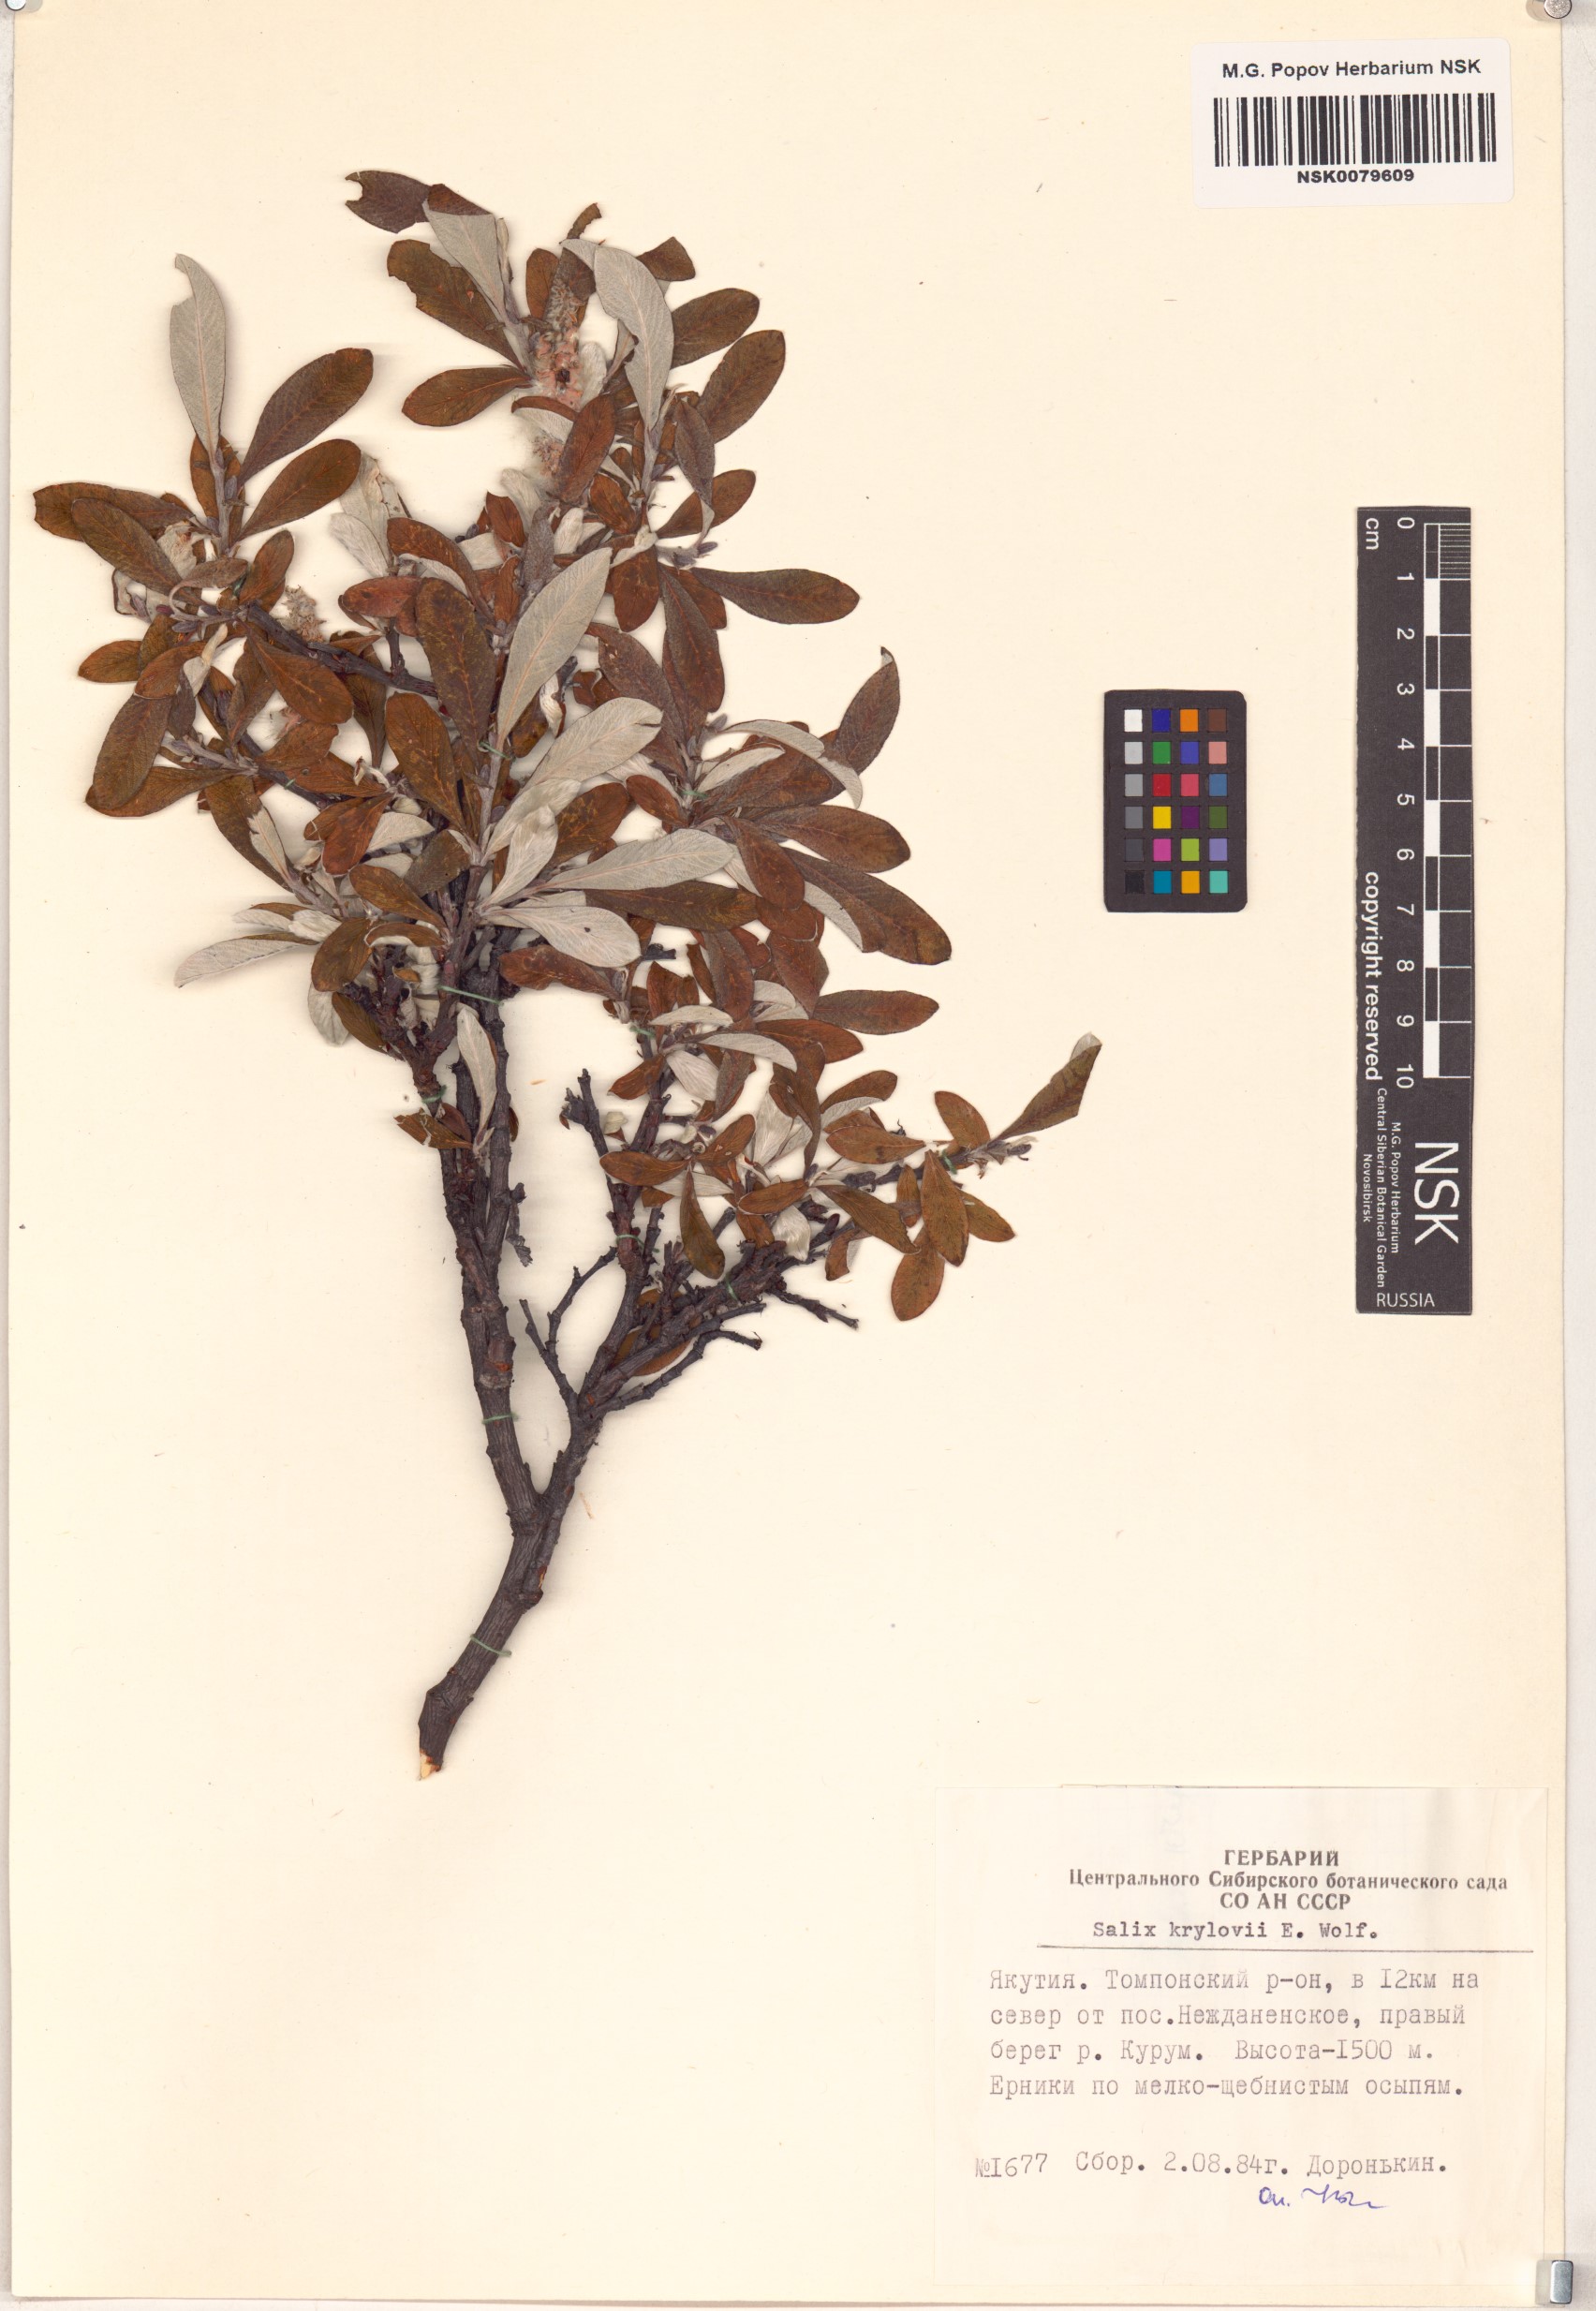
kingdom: Plantae
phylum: Tracheophyta
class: Magnoliopsida
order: Malpighiales
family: Salicaceae
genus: Salix
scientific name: Salix krylovii
